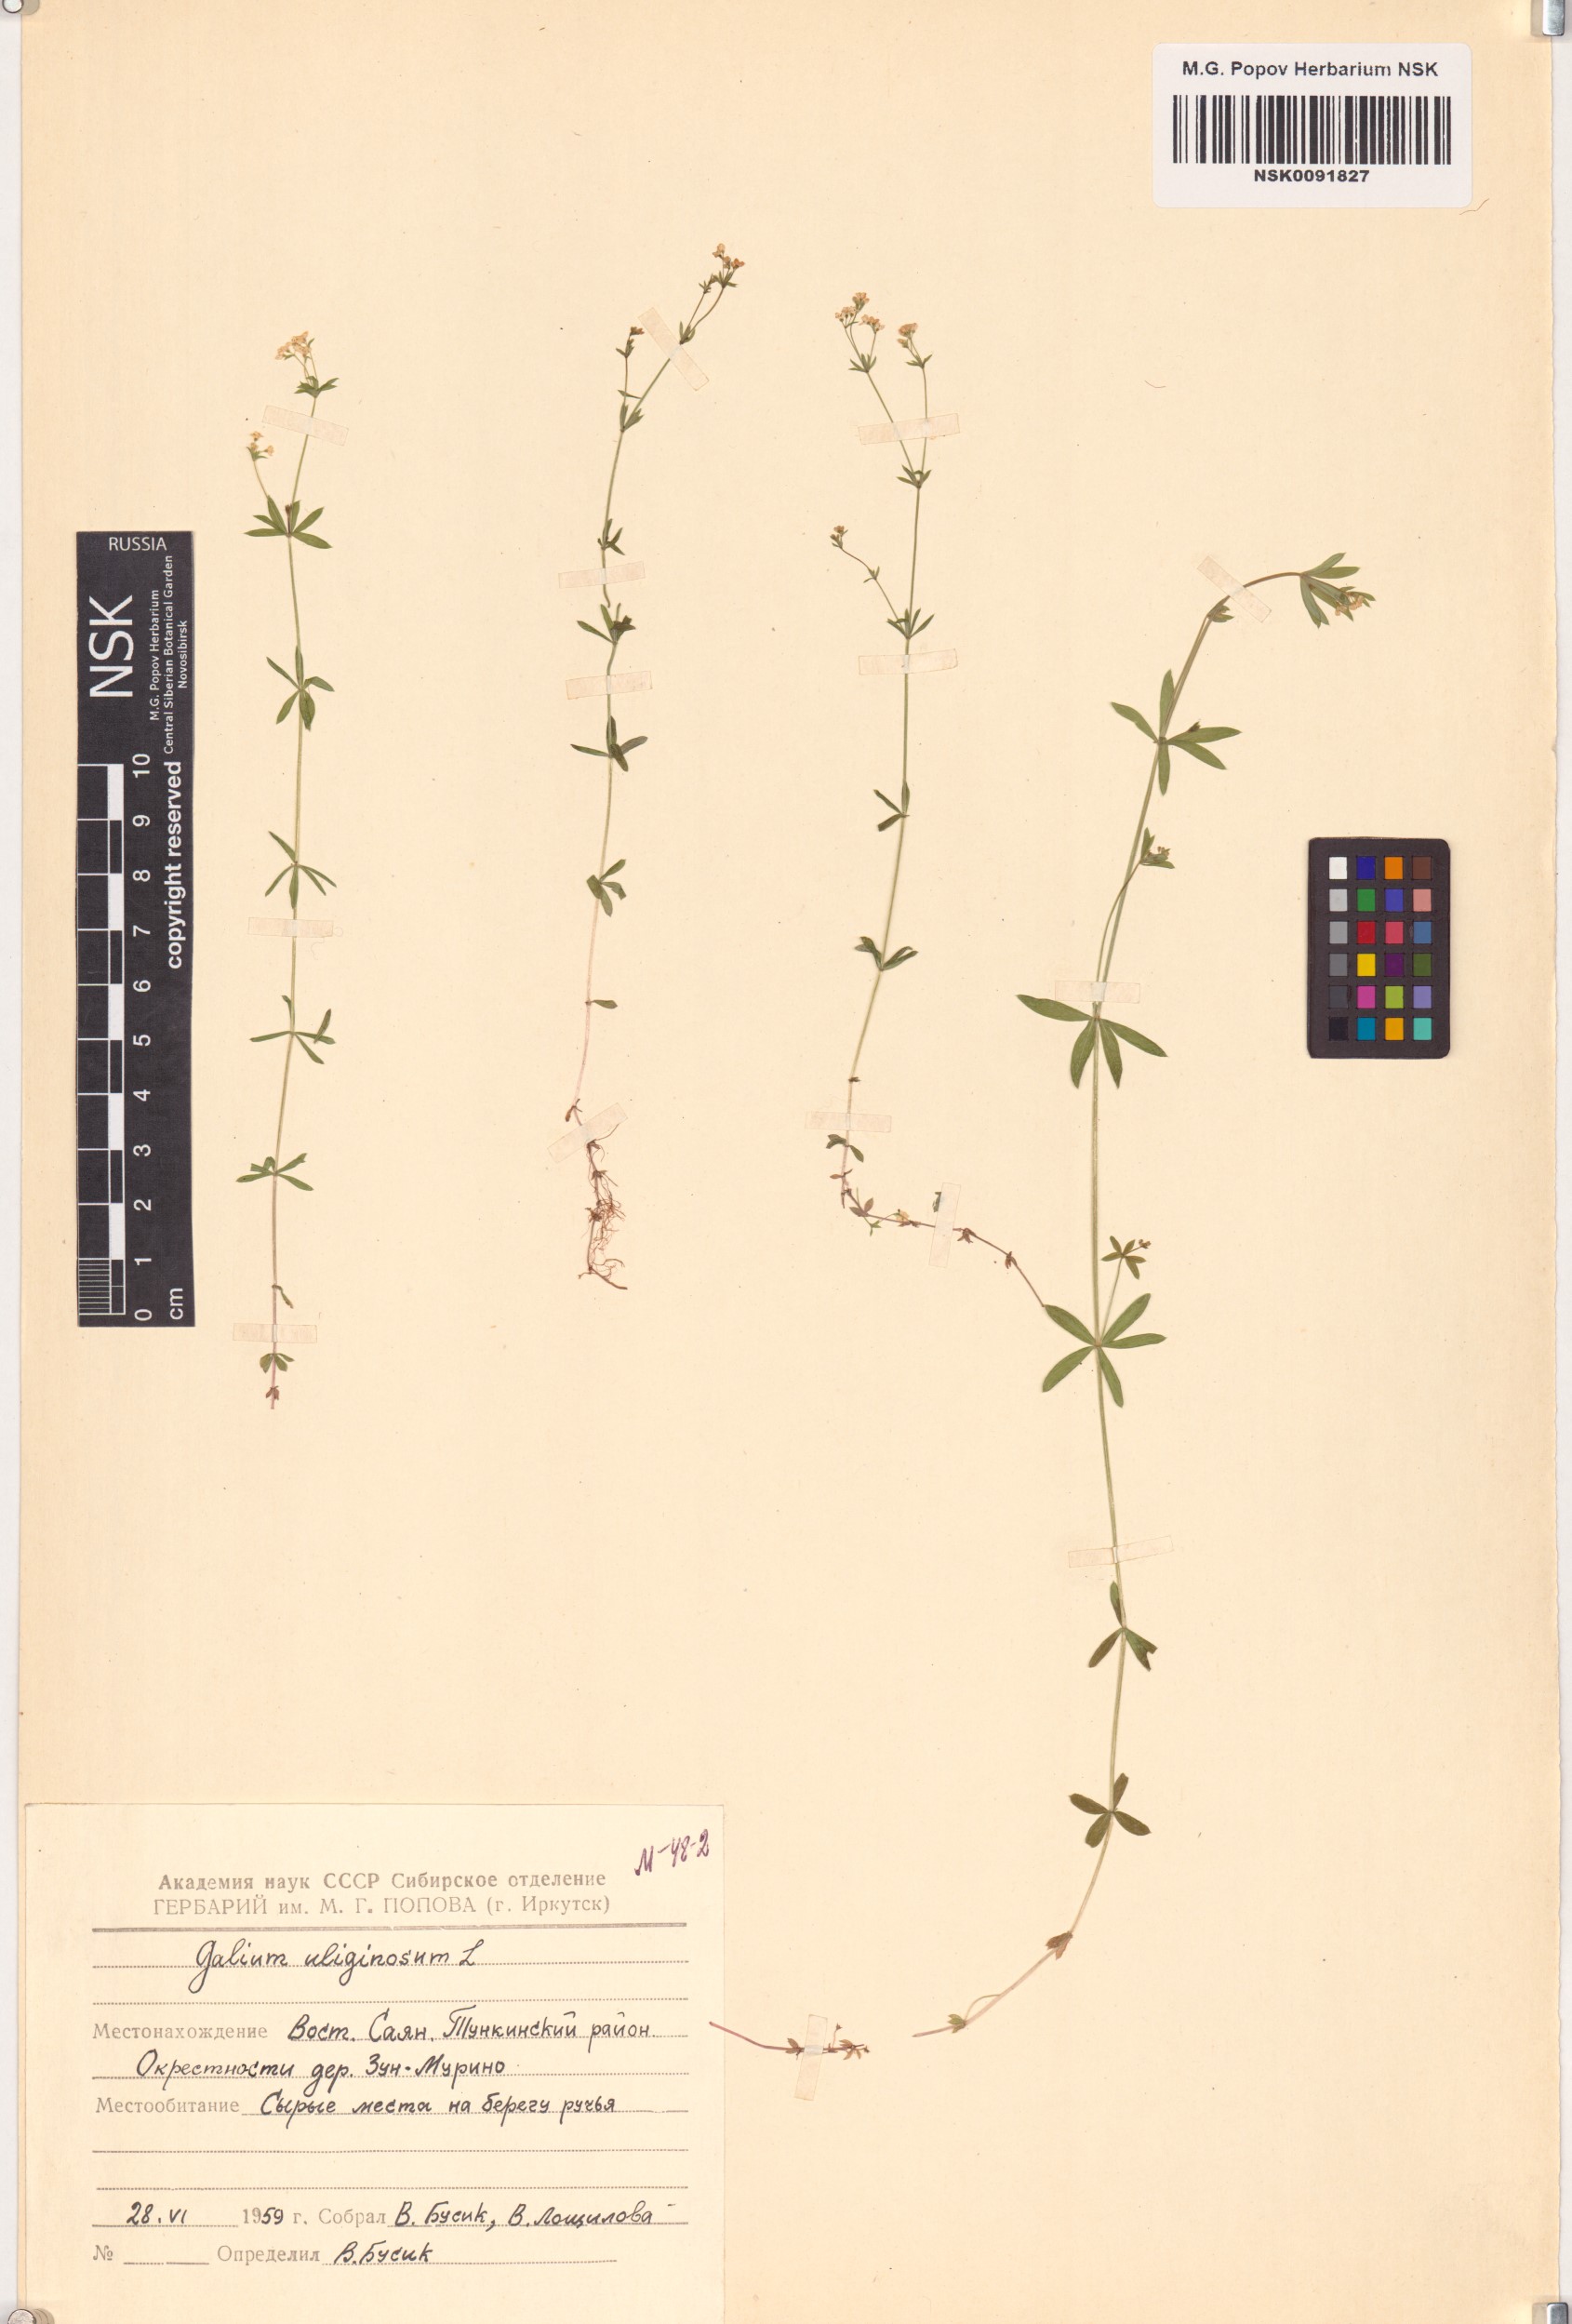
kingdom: Plantae
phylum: Tracheophyta
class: Magnoliopsida
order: Gentianales
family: Rubiaceae
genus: Galium
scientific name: Galium uliginosum
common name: Fen bedstraw
